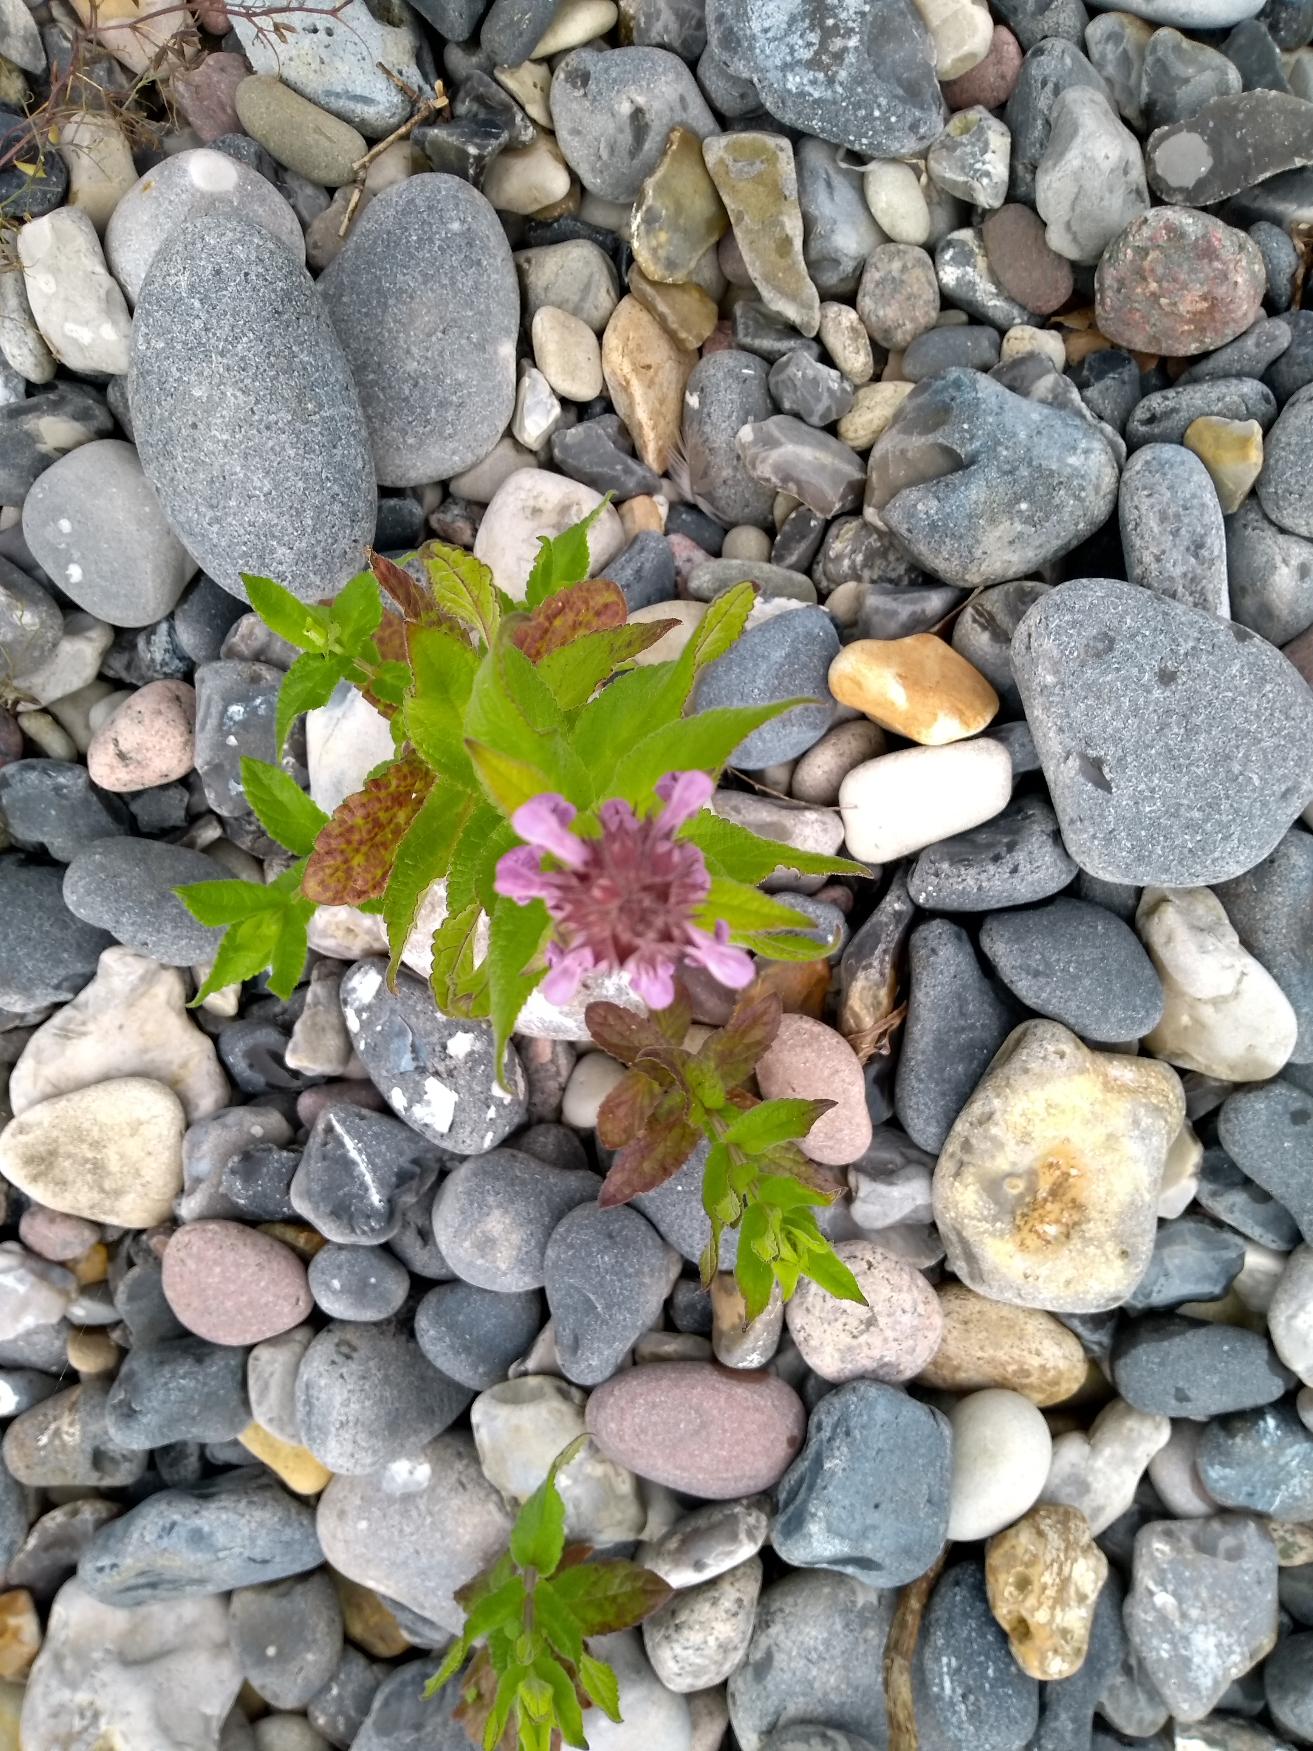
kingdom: Plantae
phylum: Tracheophyta
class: Magnoliopsida
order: Lamiales
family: Lamiaceae
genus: Stachys
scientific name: Stachys palustris
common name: Kær-galtetand
